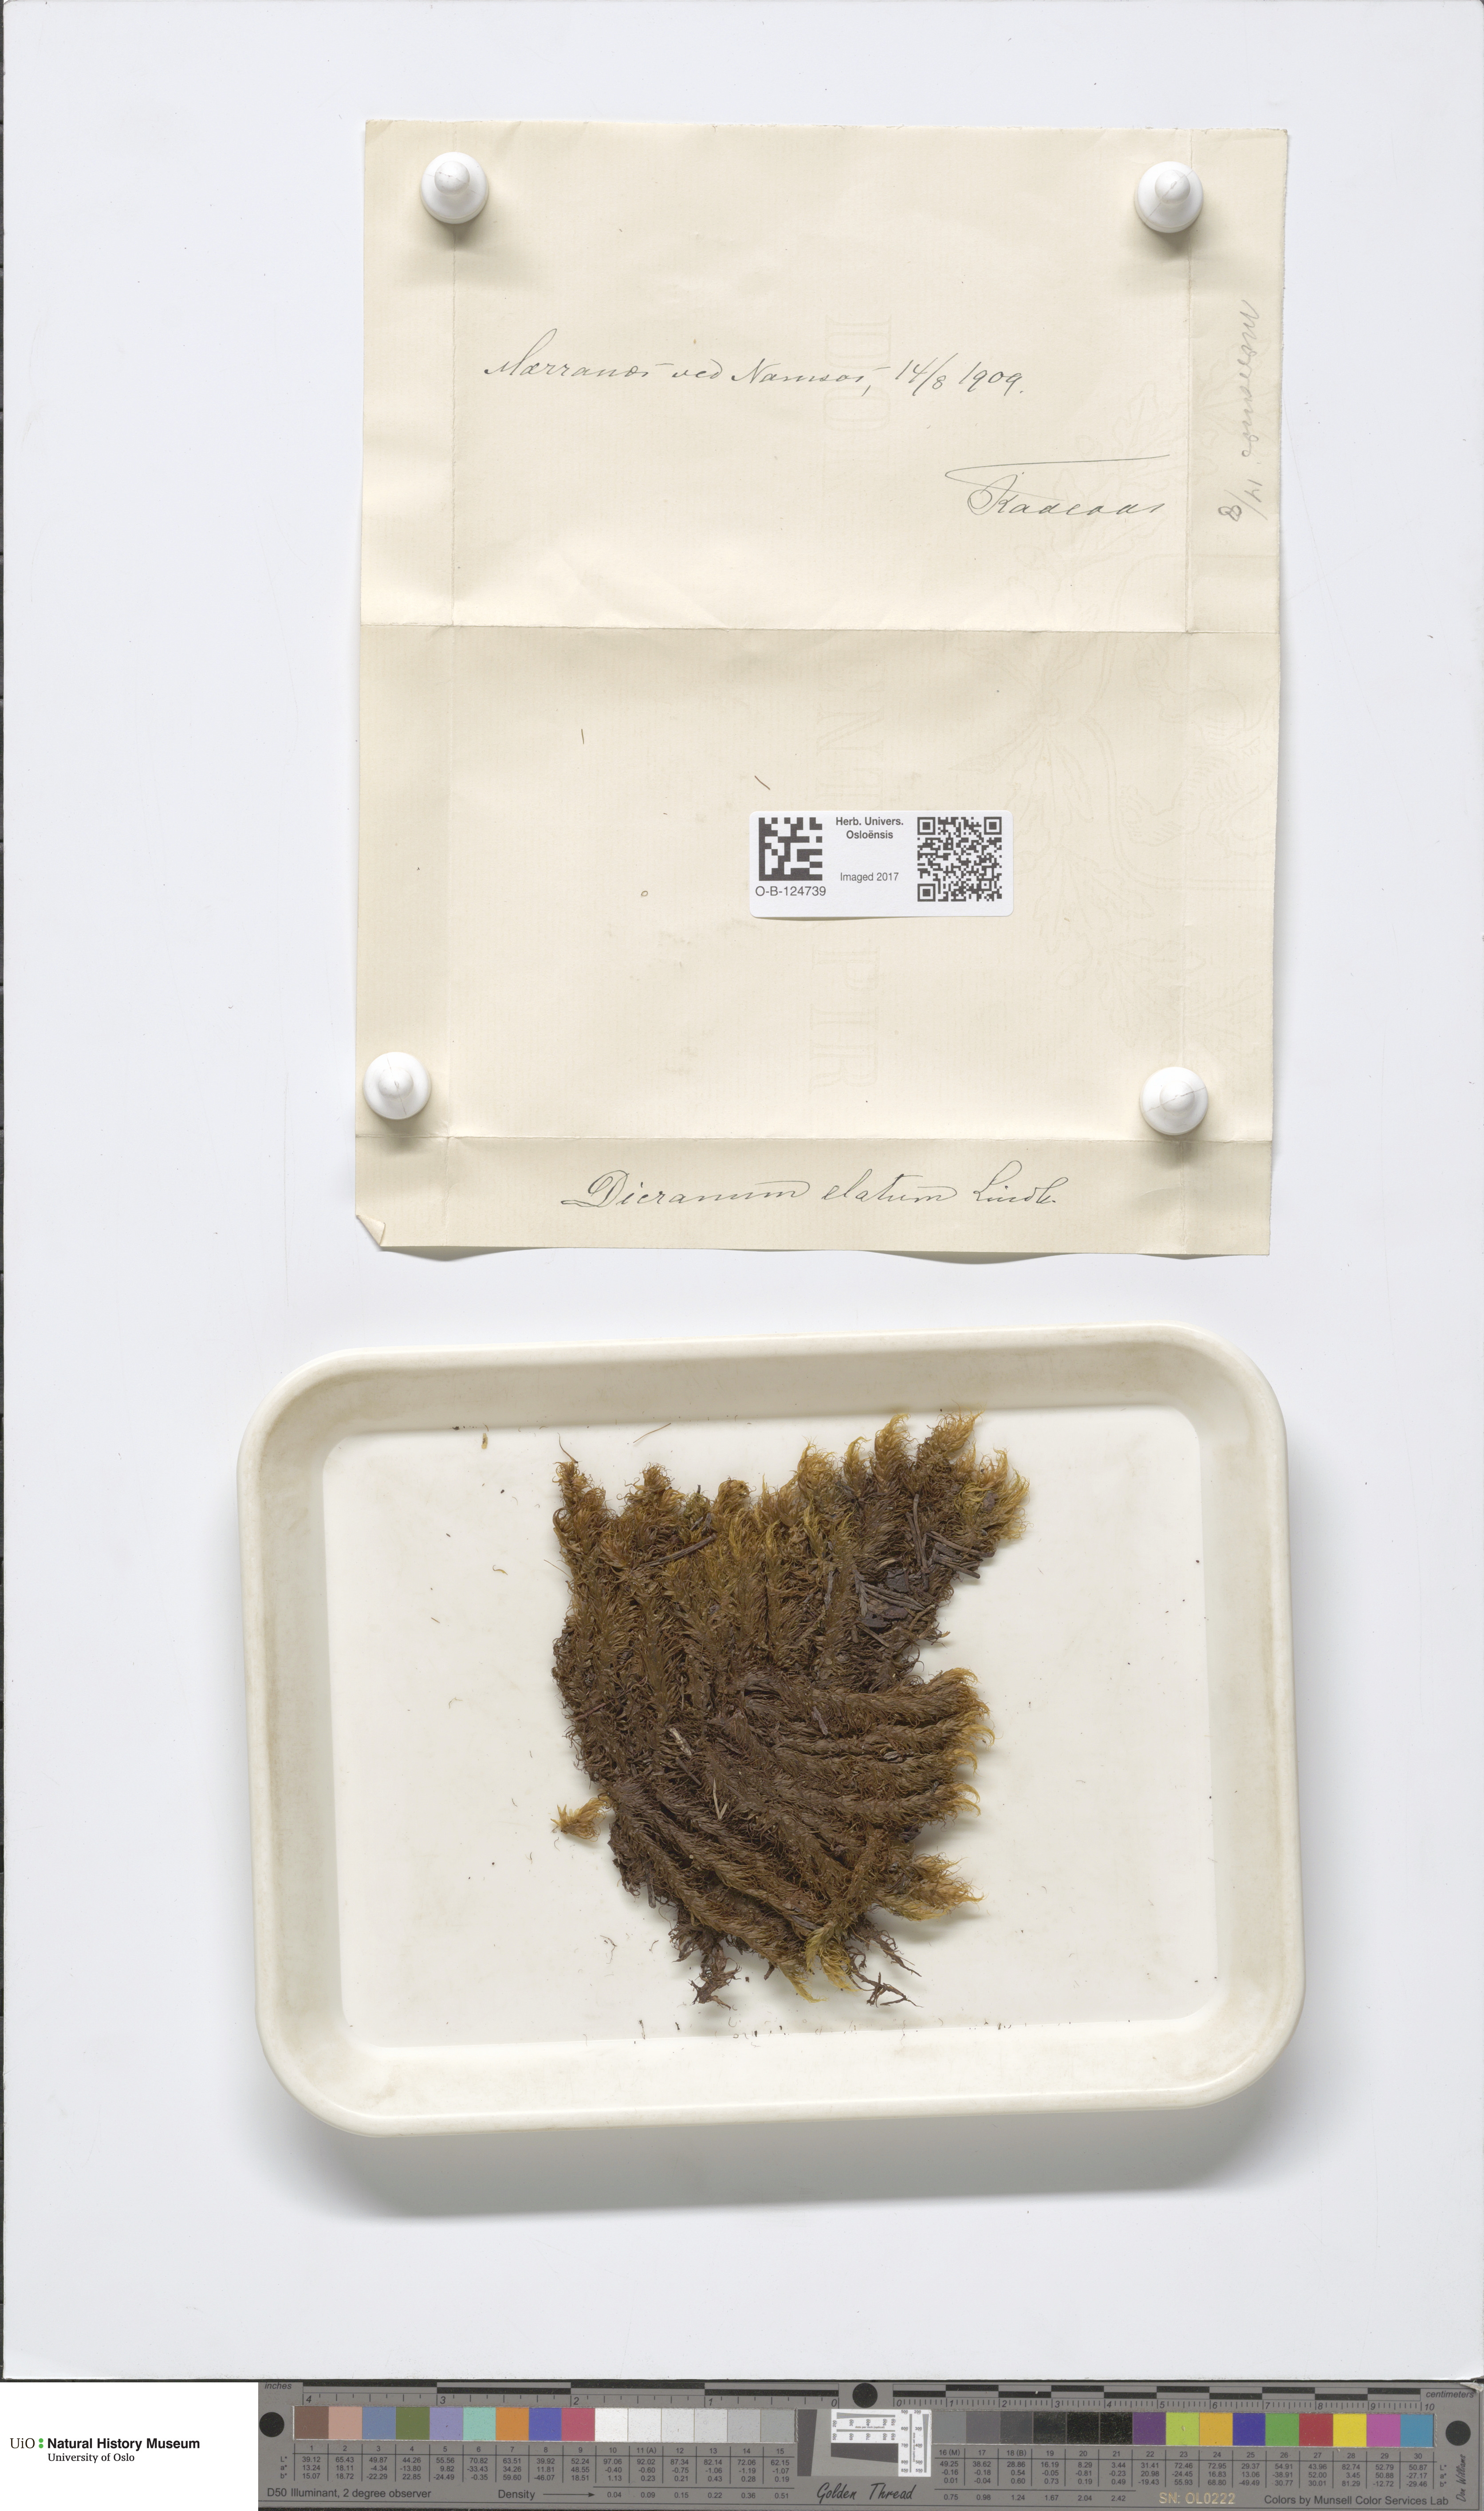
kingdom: Plantae
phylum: Bryophyta
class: Bryopsida
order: Dicranales
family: Dicranaceae
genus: Dicranum
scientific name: Dicranum drummondii
